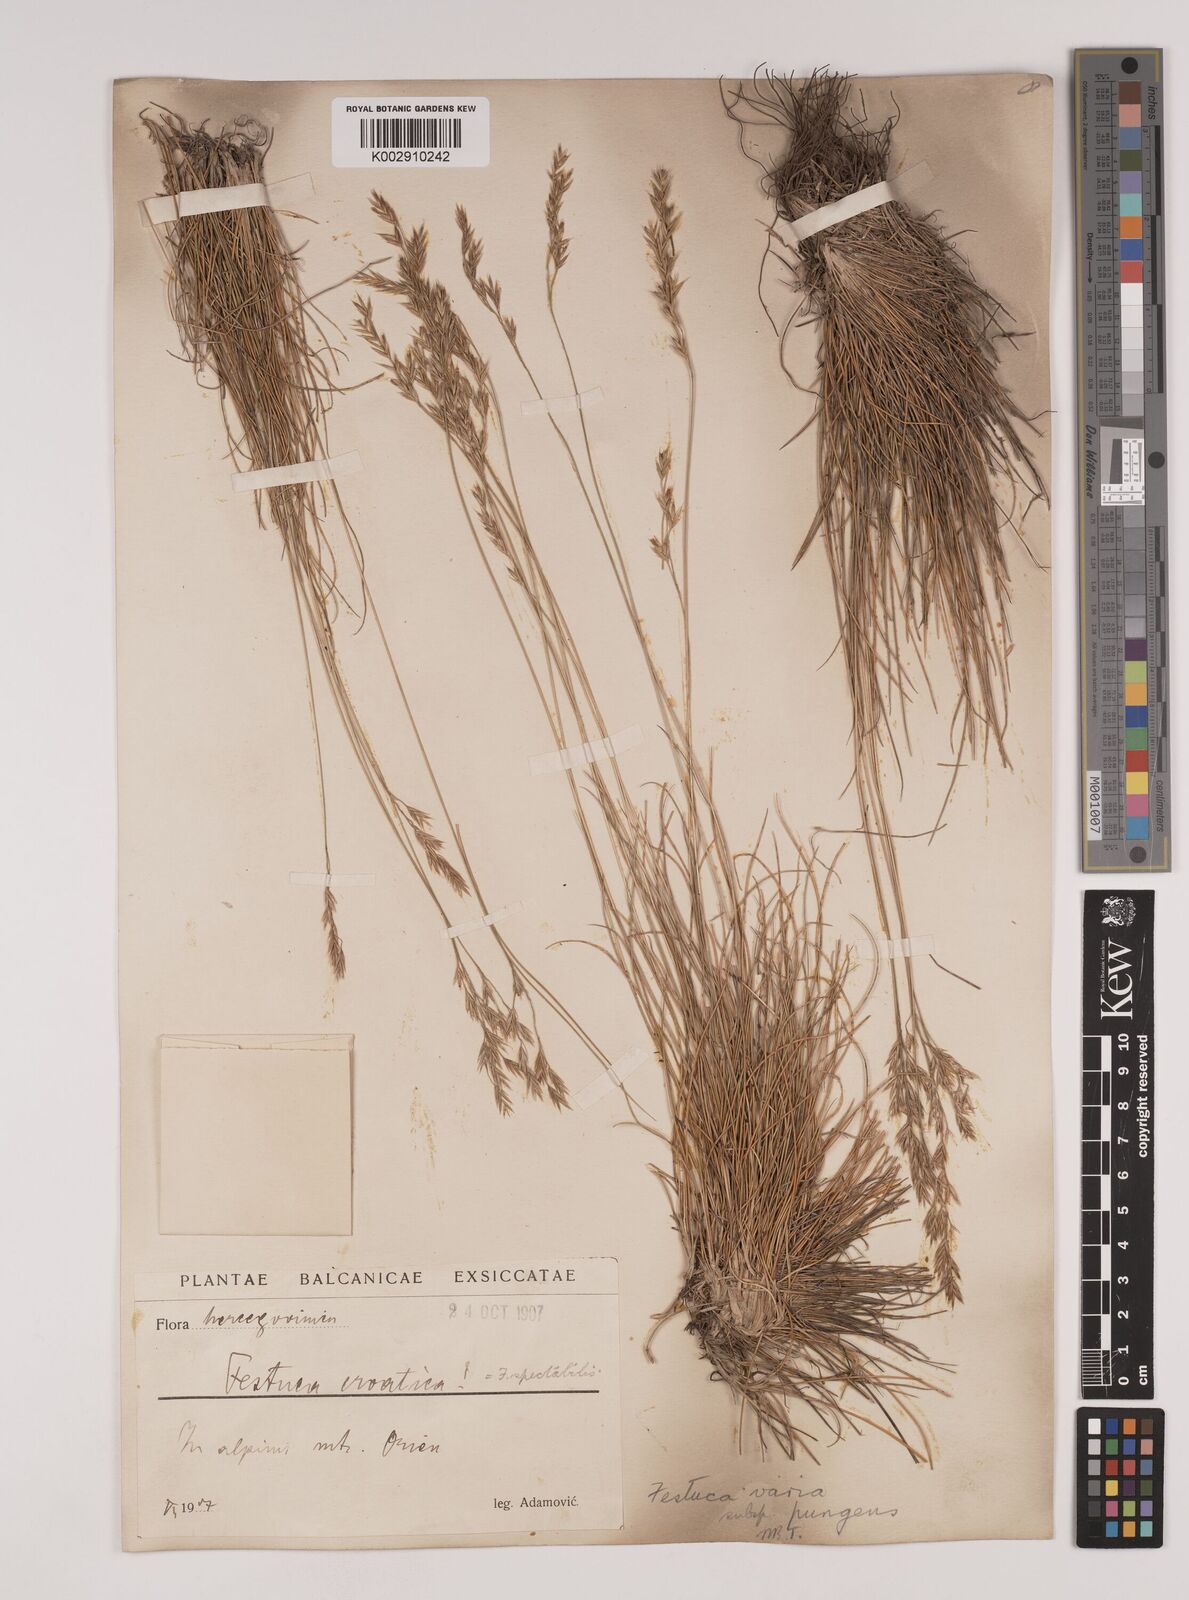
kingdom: Plantae
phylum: Tracheophyta
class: Liliopsida
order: Poales
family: Poaceae
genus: Festuca
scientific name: Festuca bosniaca
